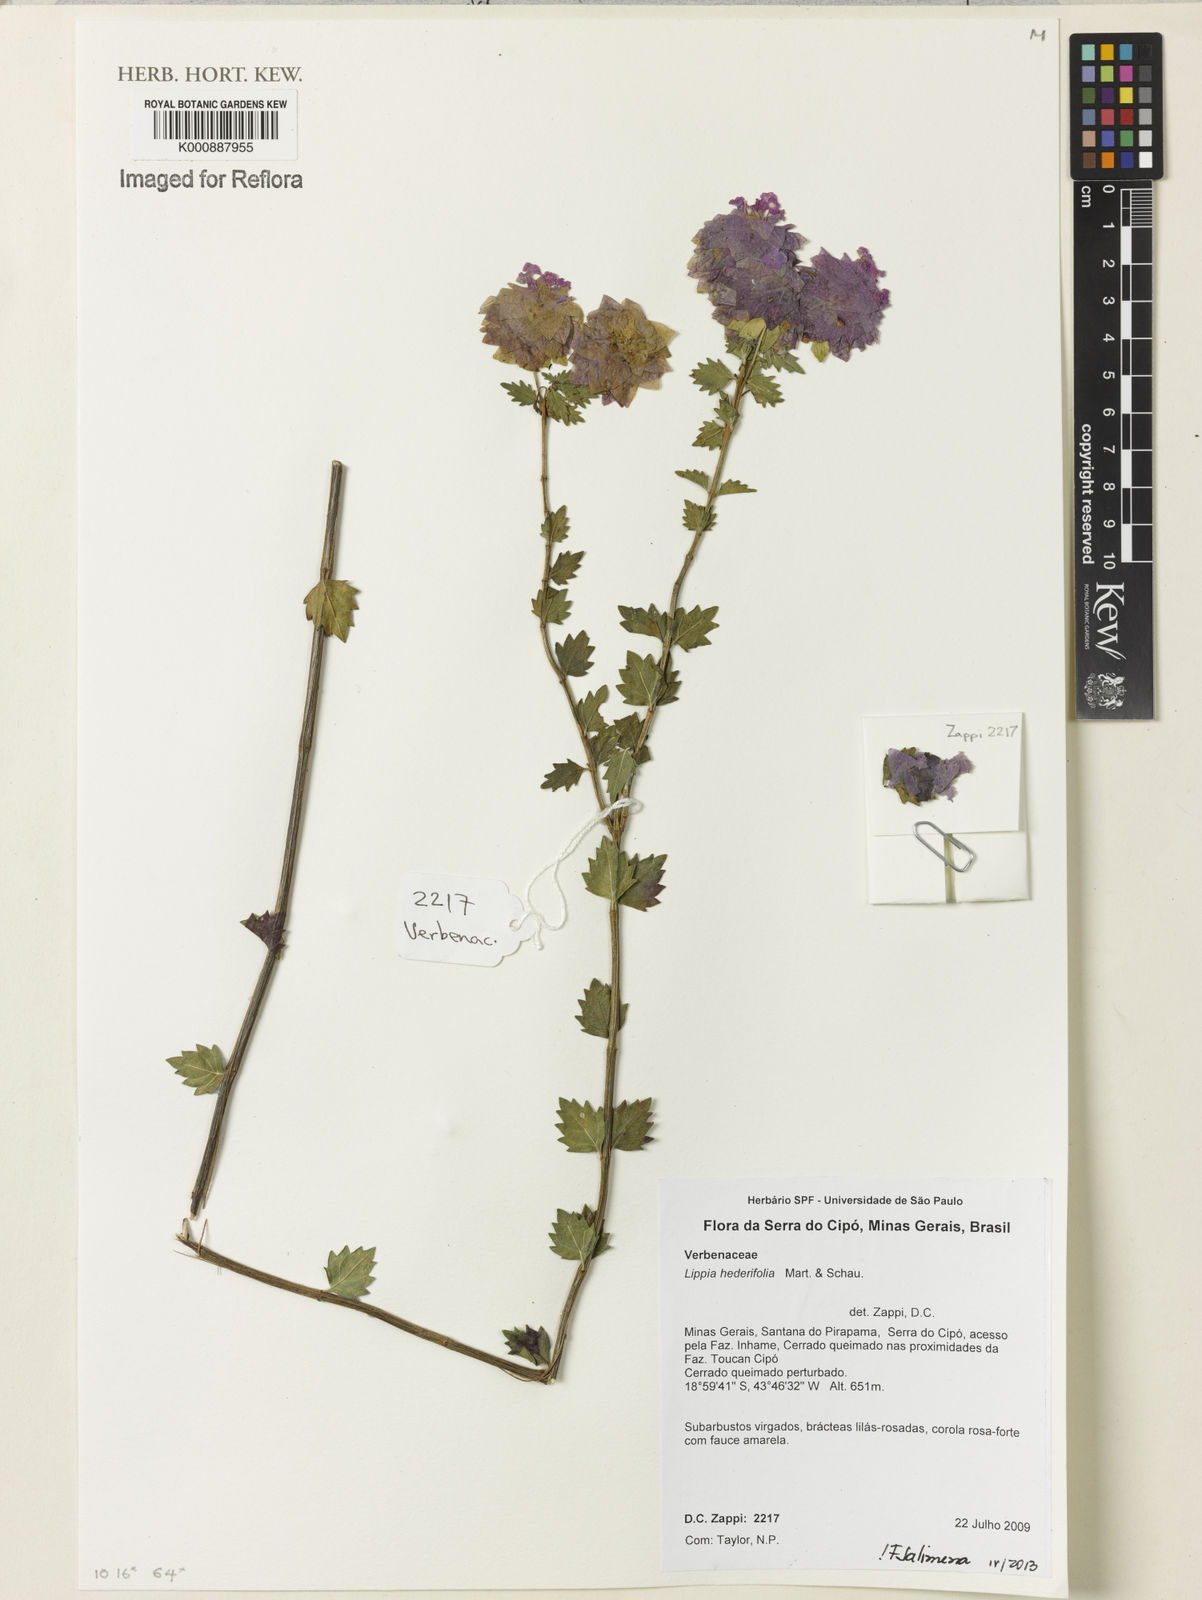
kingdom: Plantae
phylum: Tracheophyta
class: Magnoliopsida
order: Lamiales
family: Verbenaceae
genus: Lippia
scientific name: Lippia hederifolia
